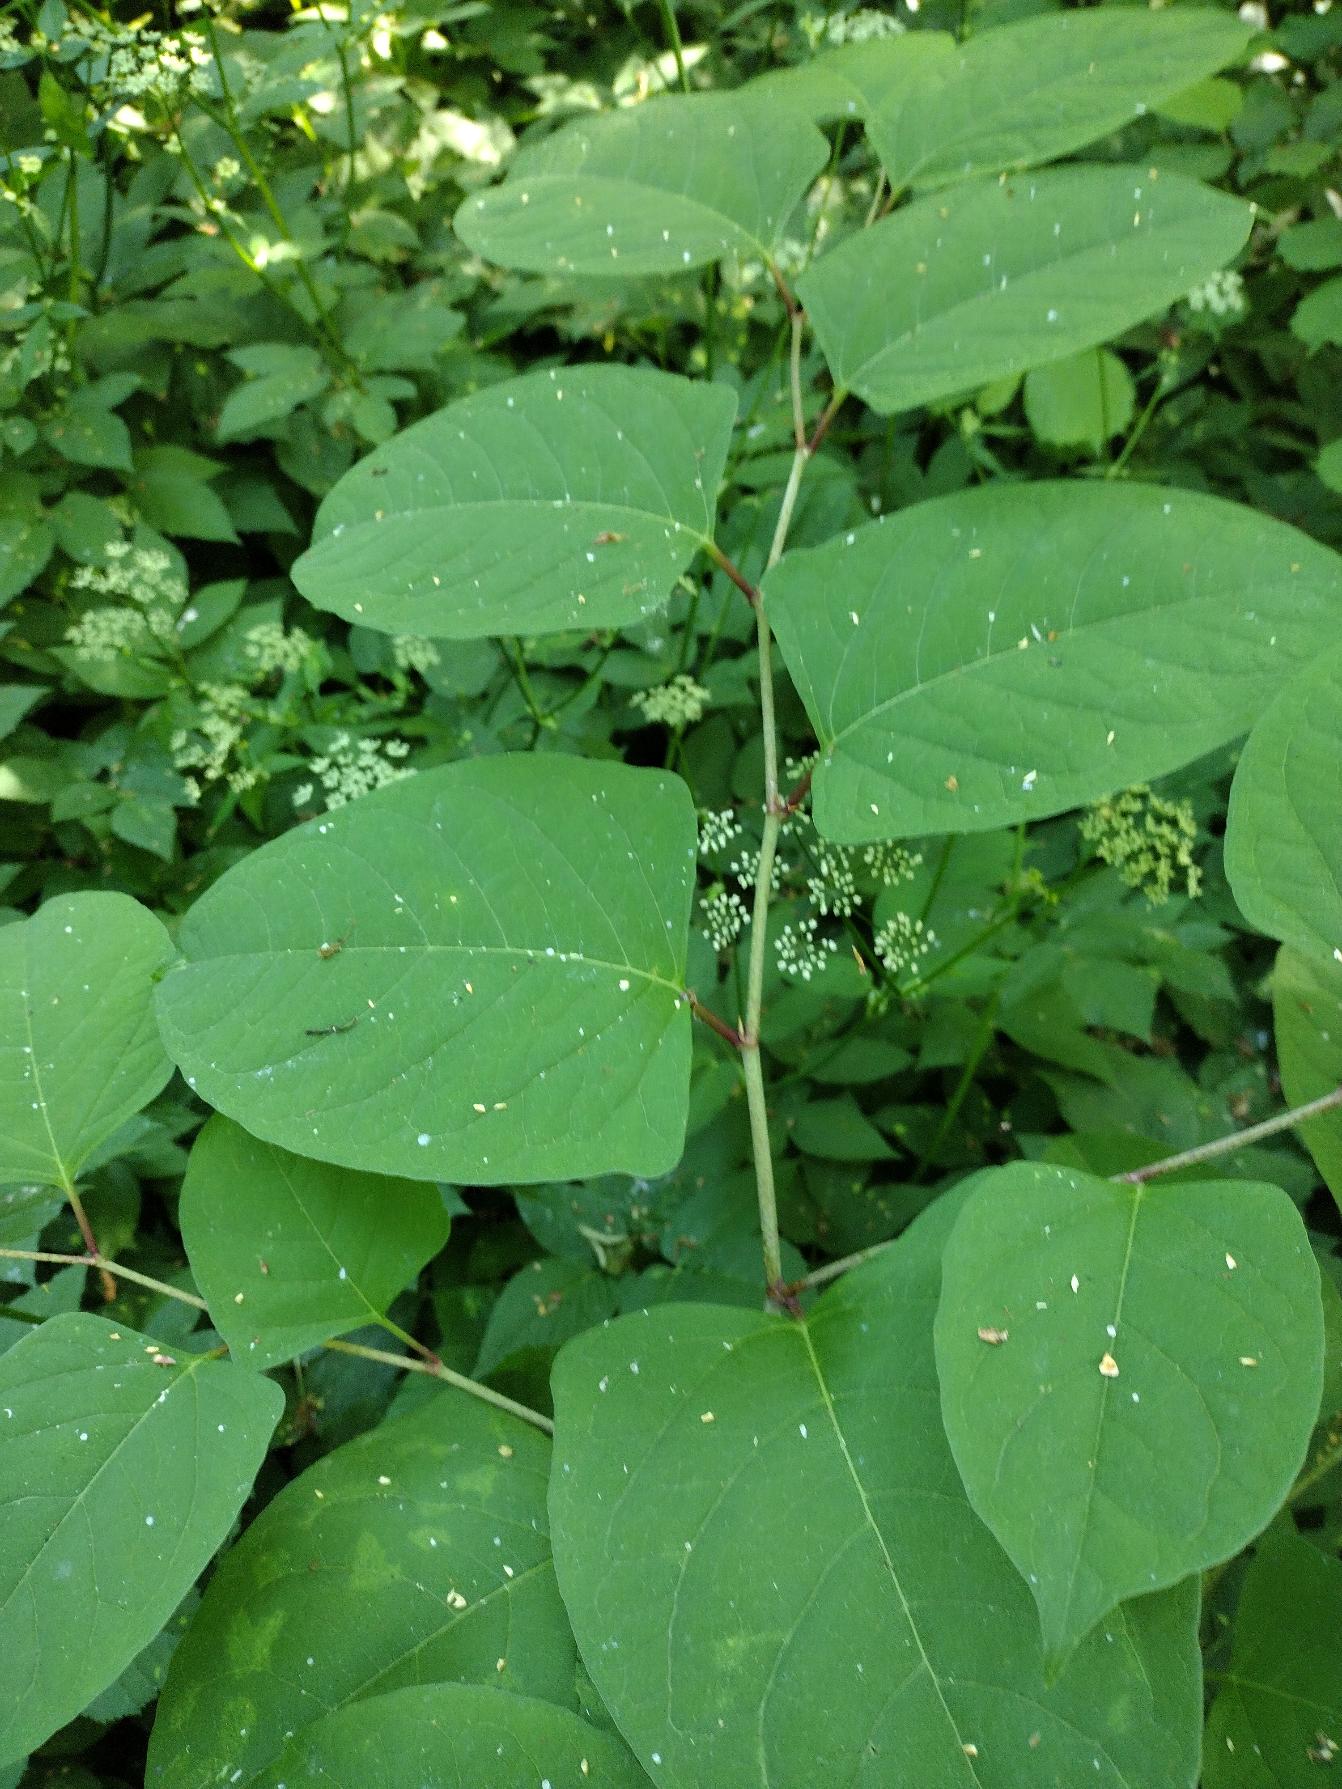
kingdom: Plantae
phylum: Tracheophyta
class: Magnoliopsida
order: Caryophyllales
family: Polygonaceae
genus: Reynoutria
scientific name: Reynoutria japonica
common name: Japan-pileurt
